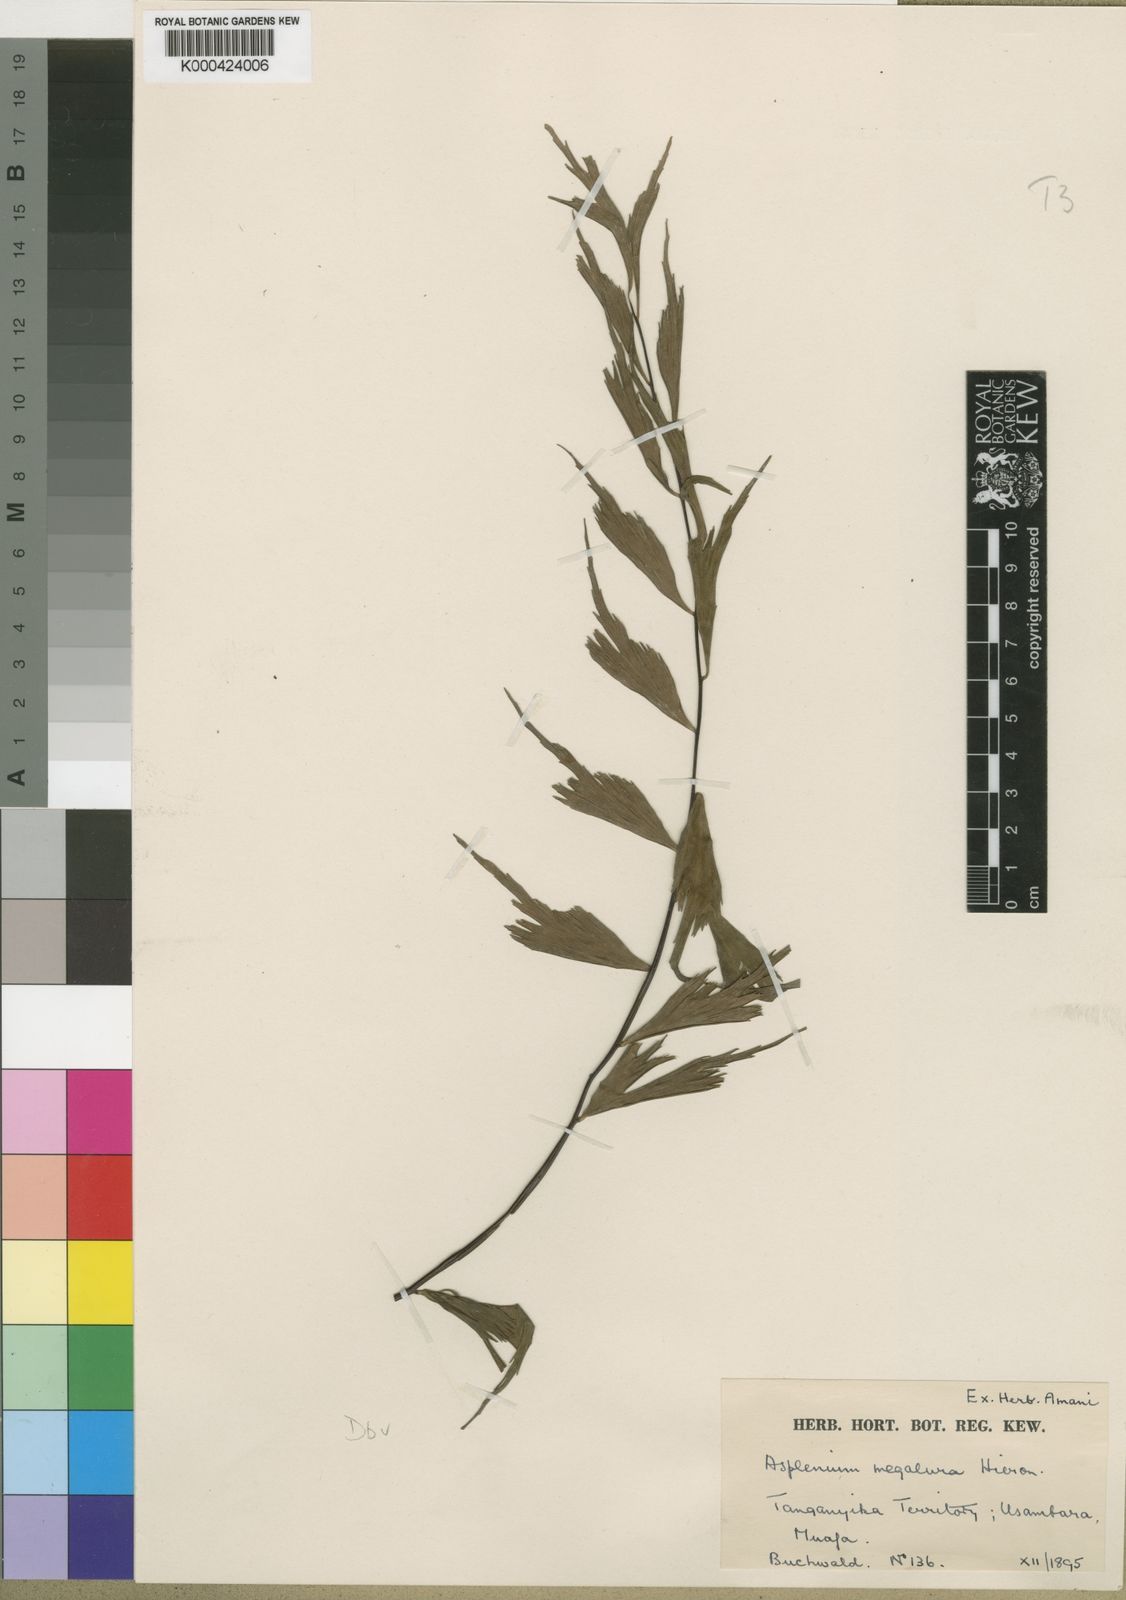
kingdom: Plantae
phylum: Tracheophyta
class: Polypodiopsida
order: Polypodiales
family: Aspleniaceae
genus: Asplenium
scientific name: Asplenium megalura
